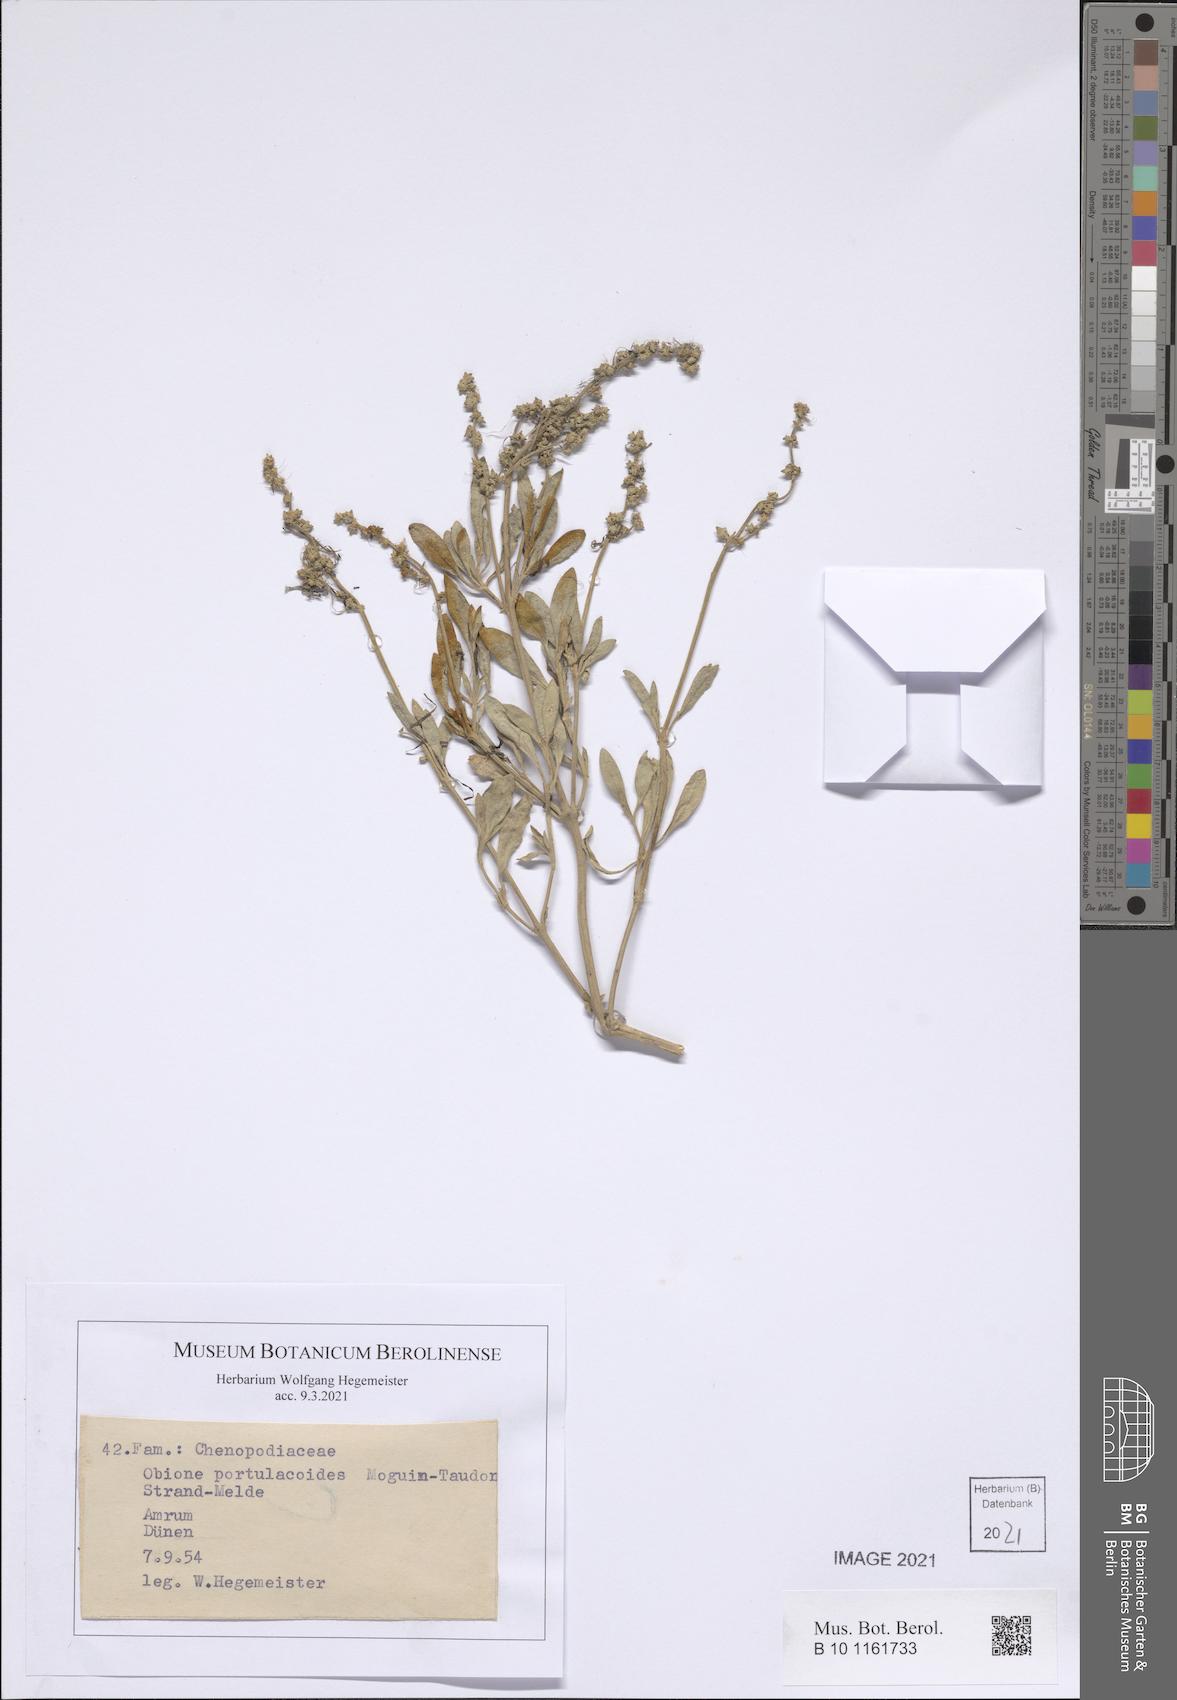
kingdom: Plantae
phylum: Tracheophyta
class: Magnoliopsida
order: Caryophyllales
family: Amaranthaceae
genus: Halimione
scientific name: Halimione portulacoides
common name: Sea-purslane
